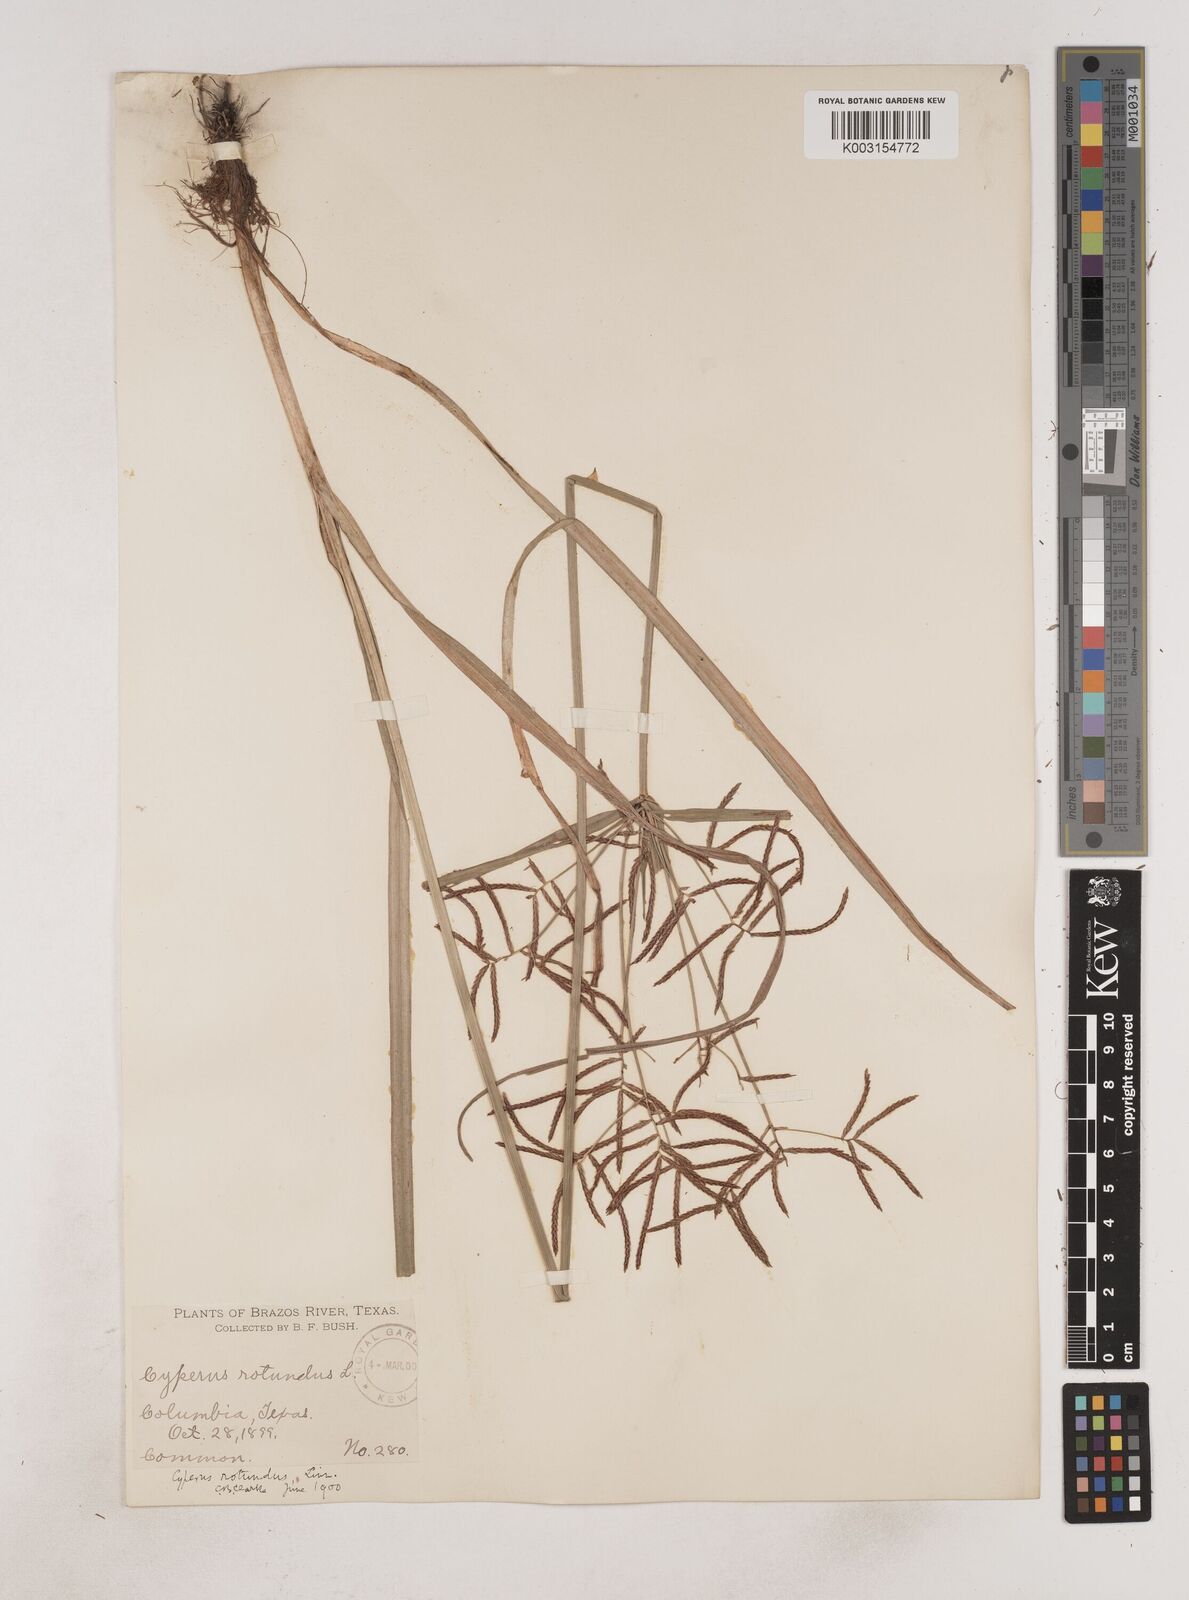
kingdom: Plantae
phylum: Tracheophyta
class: Liliopsida
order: Poales
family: Cyperaceae
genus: Cyperus
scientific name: Cyperus rotundus
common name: Nutgrass
